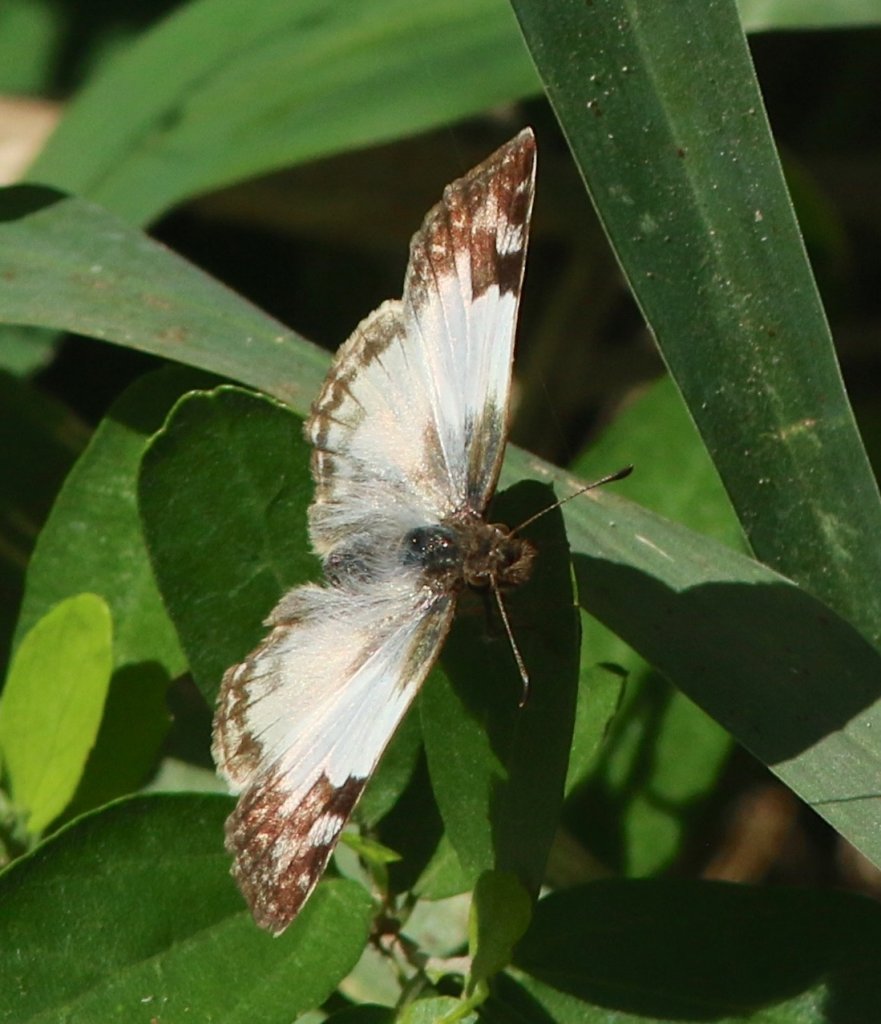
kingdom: Animalia
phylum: Arthropoda
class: Insecta
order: Lepidoptera
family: Hesperiidae
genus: Heliopetes
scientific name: Heliopetes macaira
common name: Turk's-cap White-Skipper
